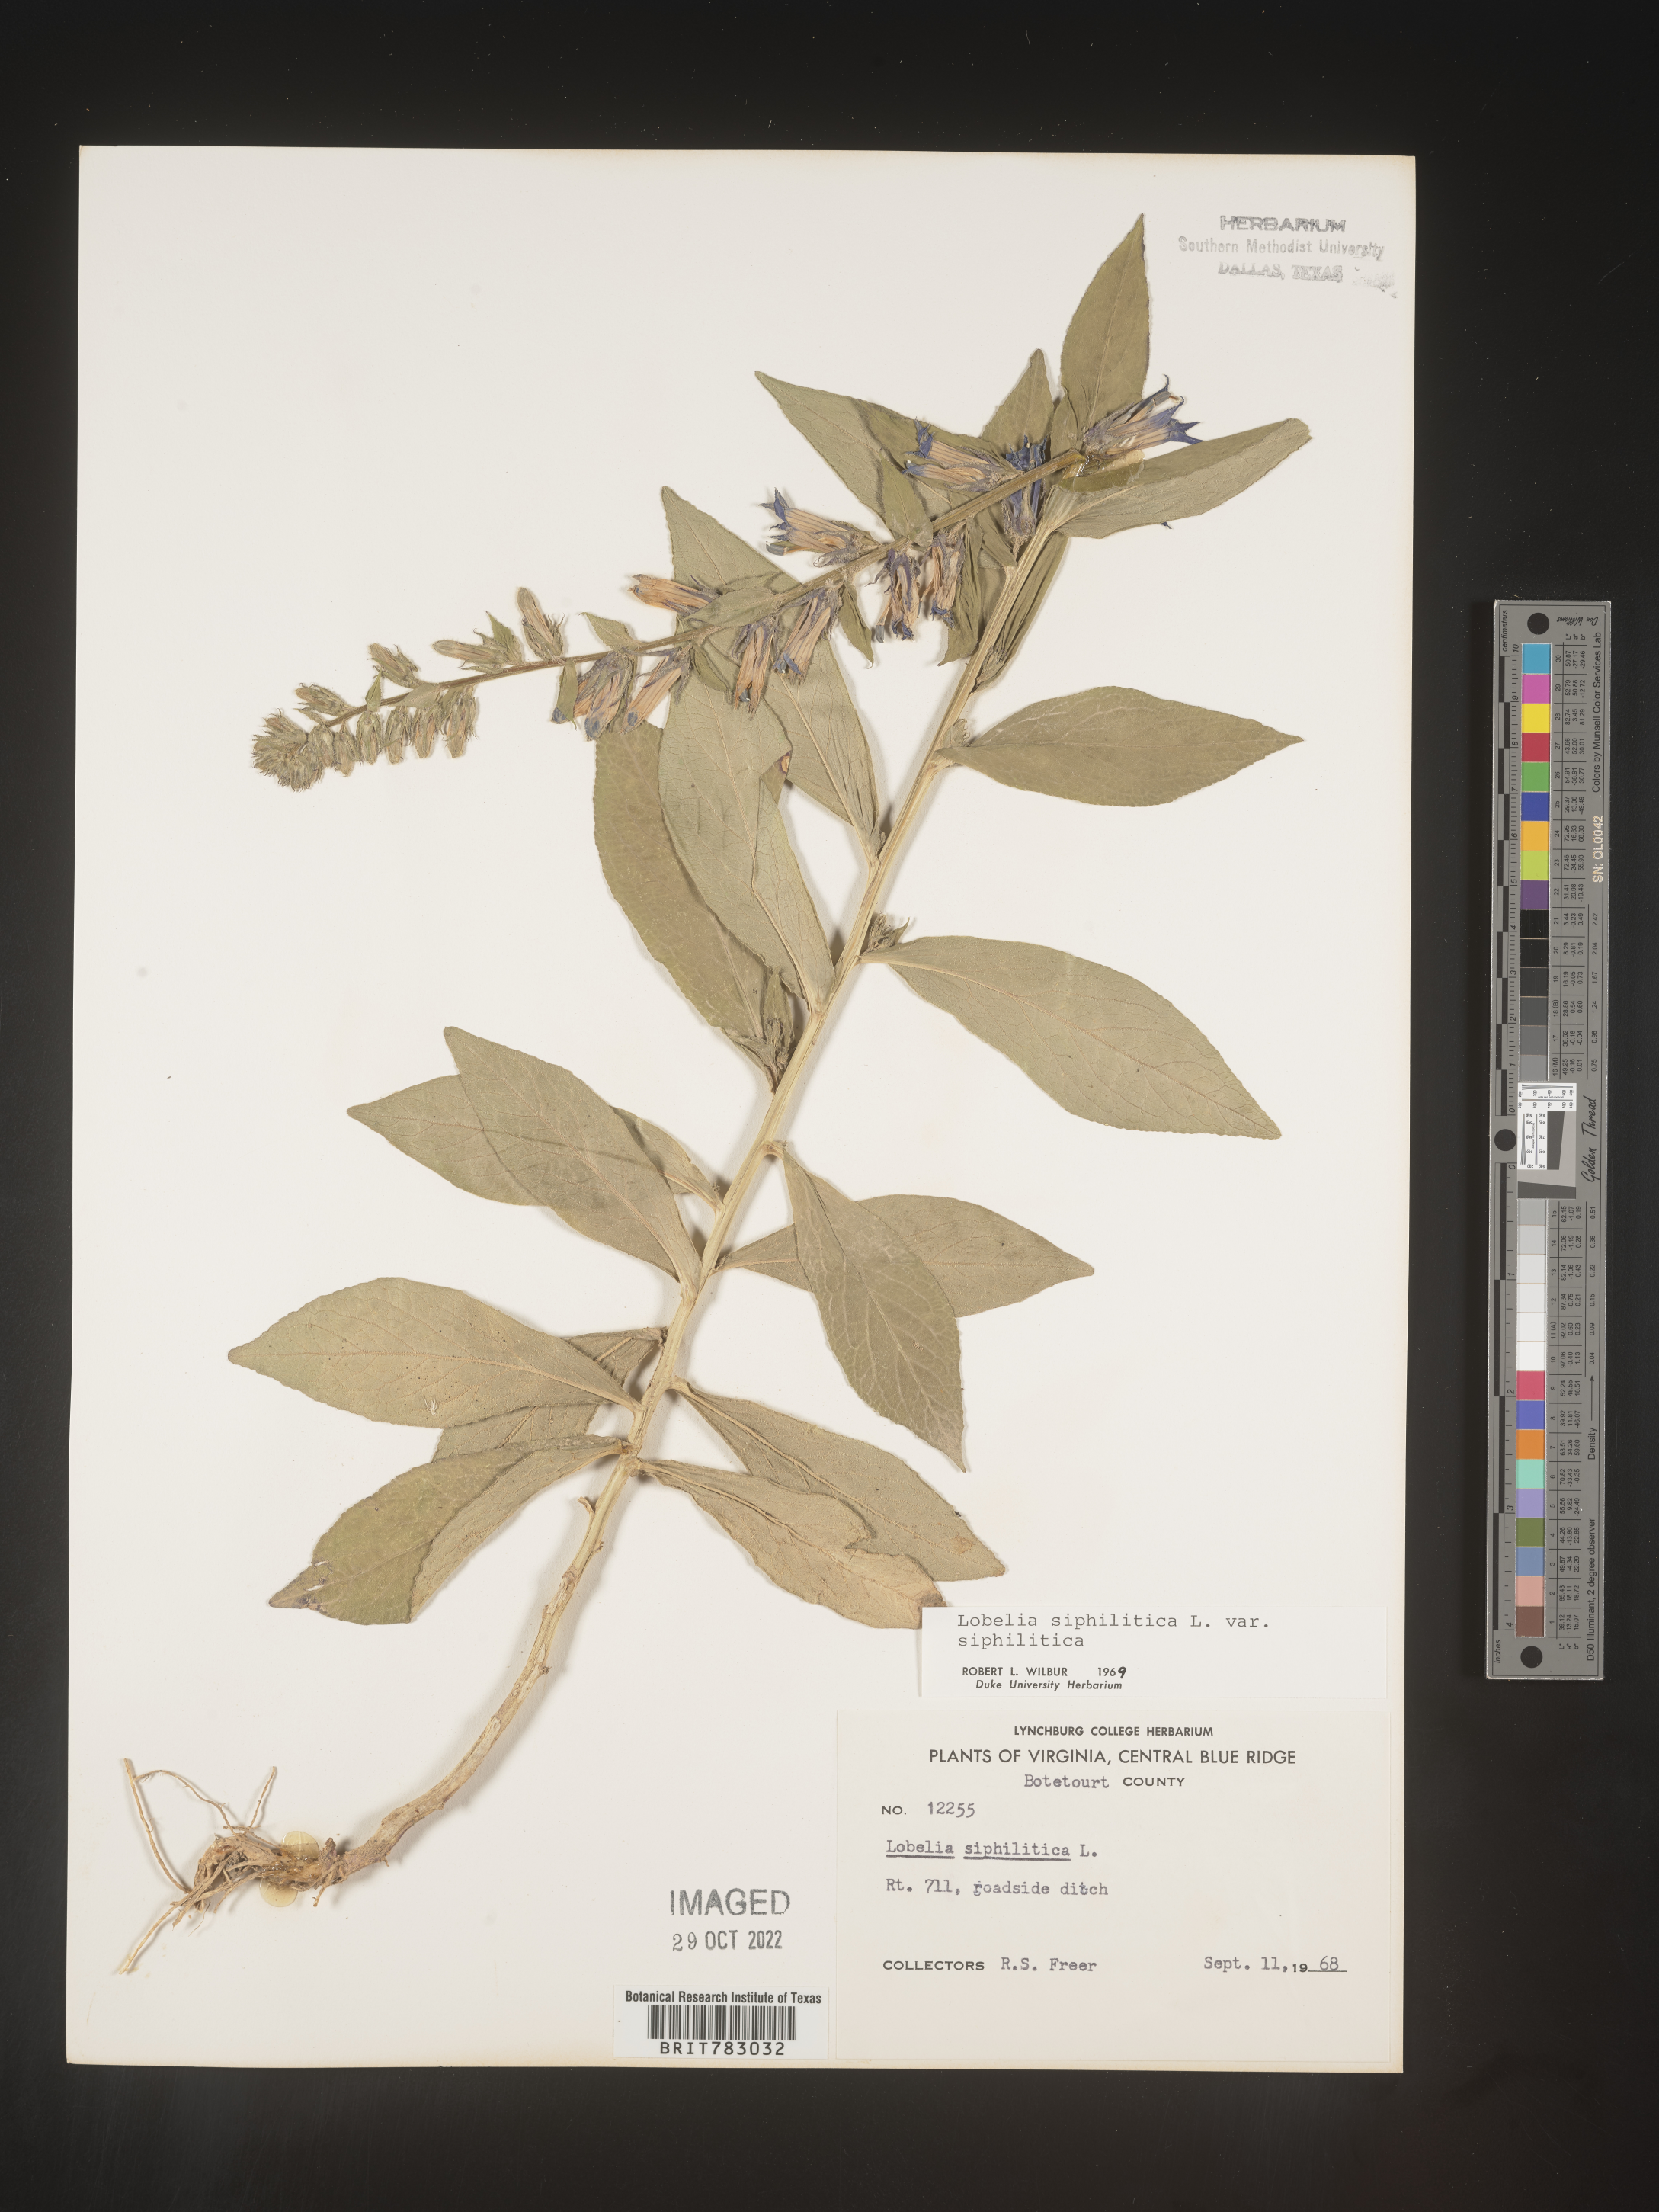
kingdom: Plantae
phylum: Tracheophyta
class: Magnoliopsida
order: Asterales
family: Campanulaceae
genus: Lobelia
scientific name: Lobelia siphilitica
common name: Great lobelia
